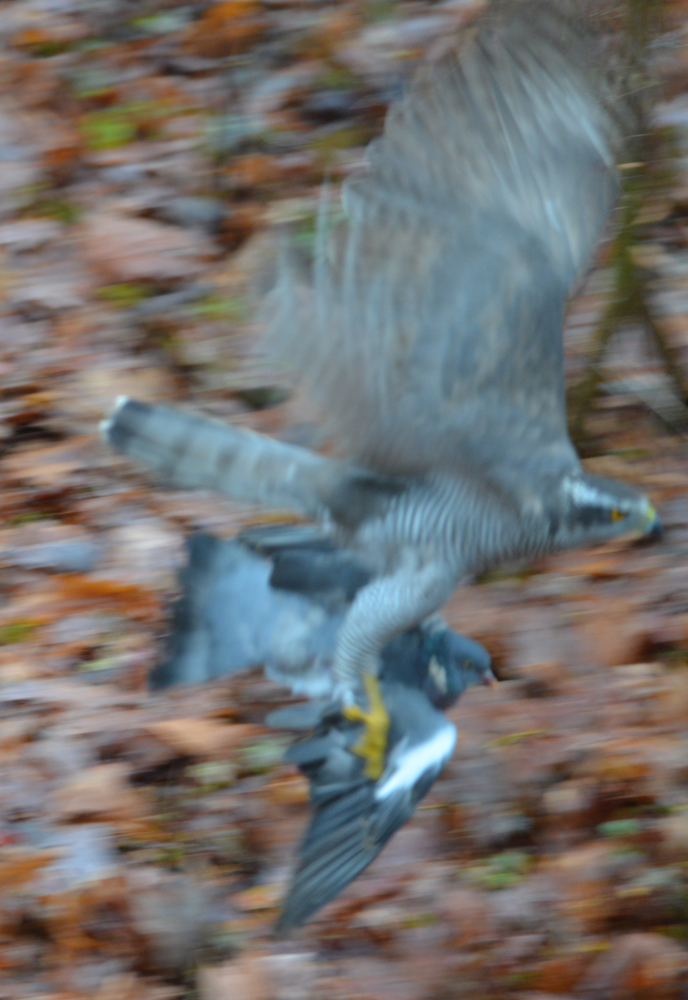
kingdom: Animalia
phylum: Chordata
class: Aves
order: Columbiformes
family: Columbidae
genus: Columba
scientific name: Columba palumbus
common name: Common wood pigeon
